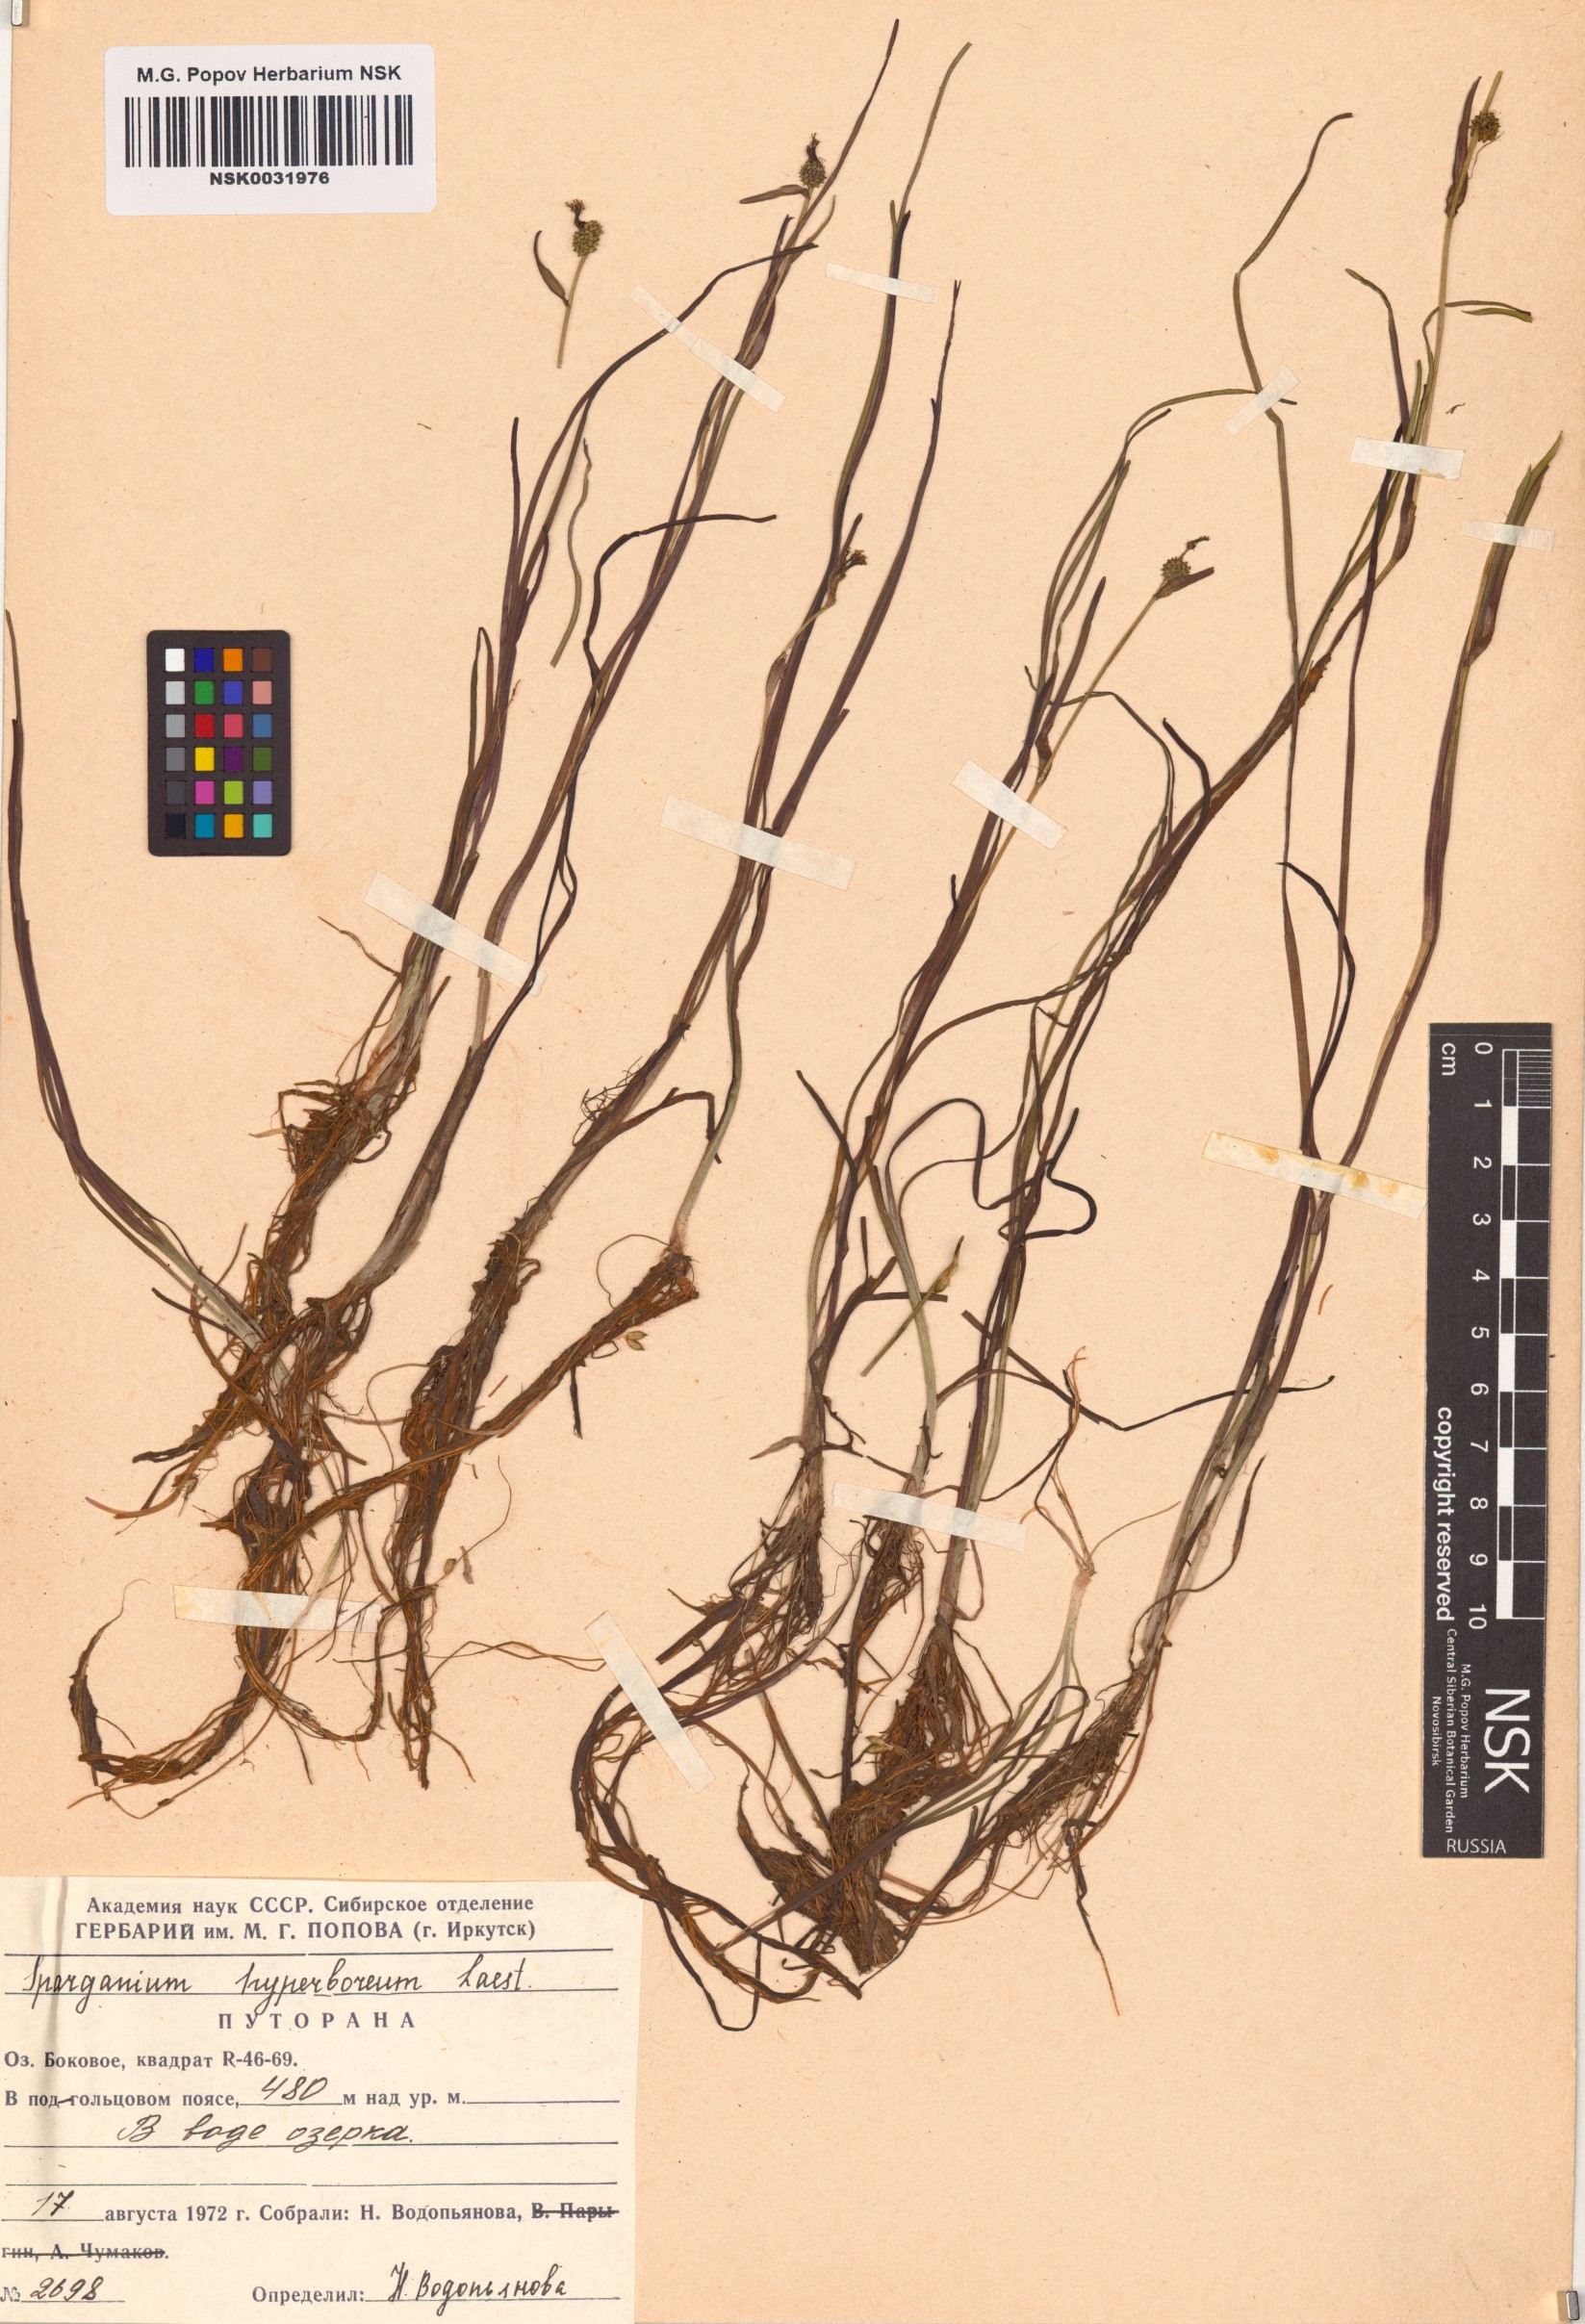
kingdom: Plantae
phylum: Tracheophyta
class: Liliopsida
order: Poales
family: Typhaceae
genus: Sparganium
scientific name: Sparganium hyperboreum
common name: Arctic burreed
